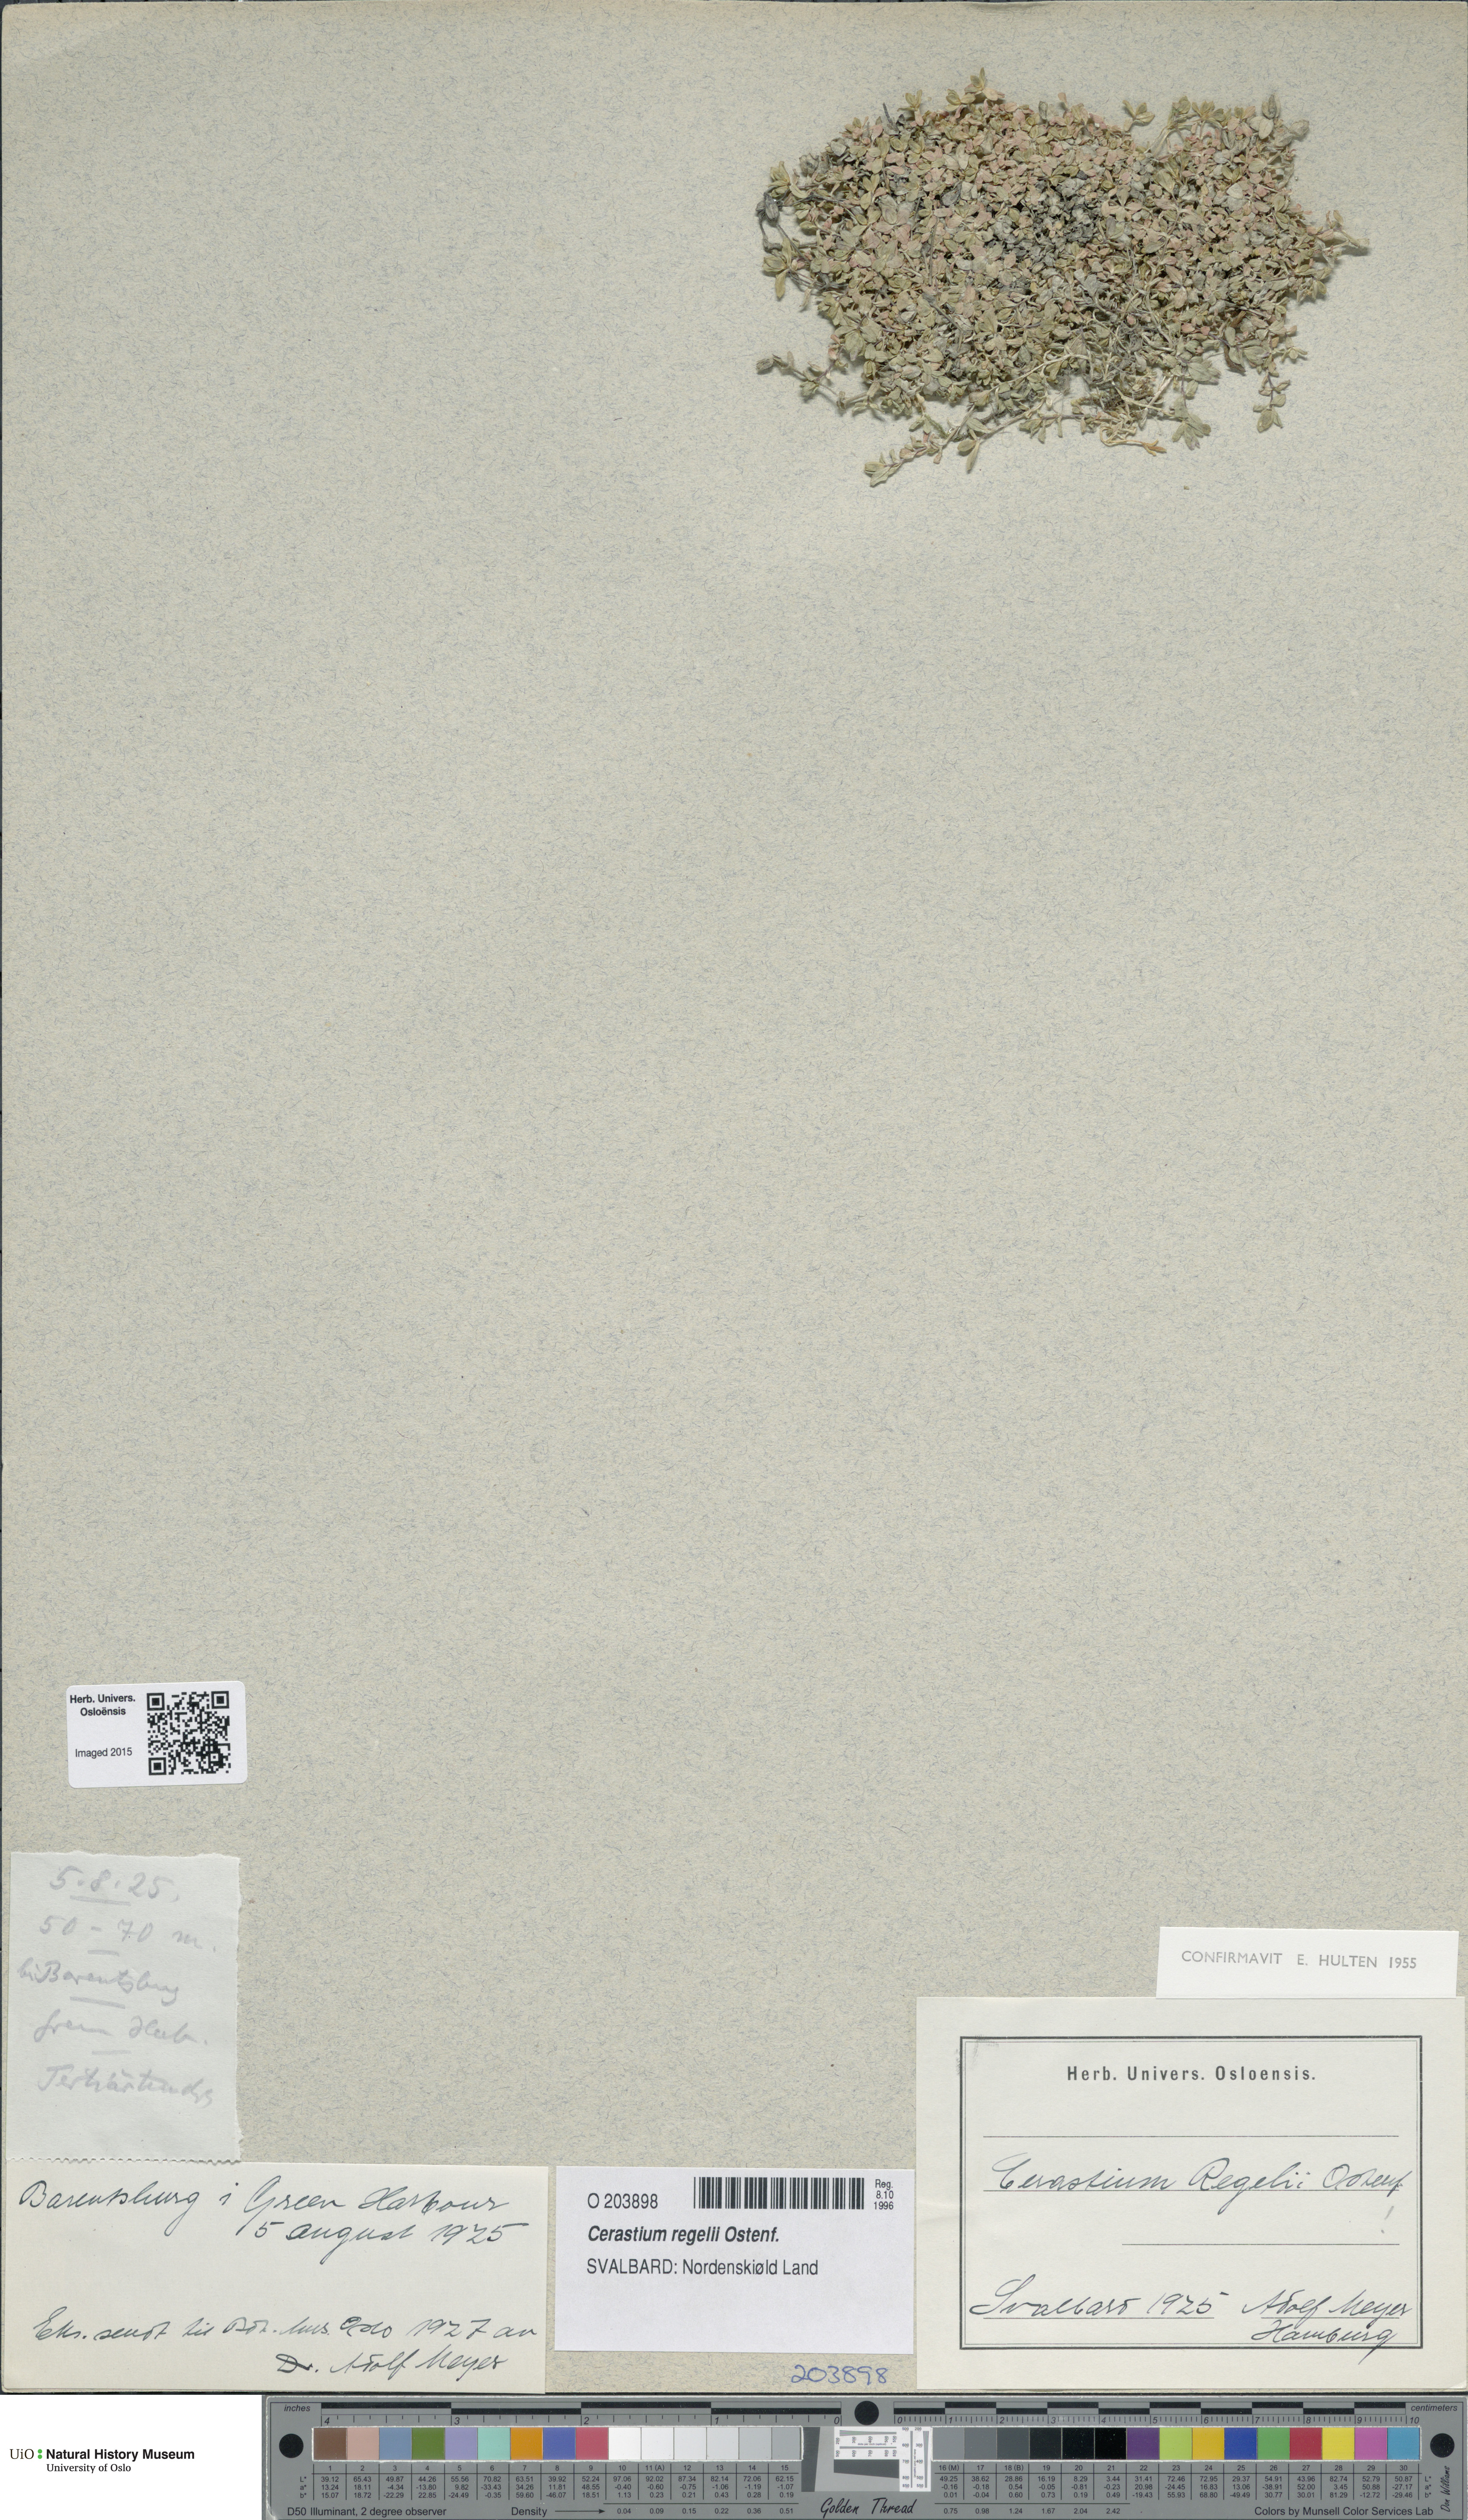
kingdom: Plantae
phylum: Tracheophyta
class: Magnoliopsida
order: Caryophyllales
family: Caryophyllaceae
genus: Cerastium
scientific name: Cerastium regelii
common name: Regel's chickweed
